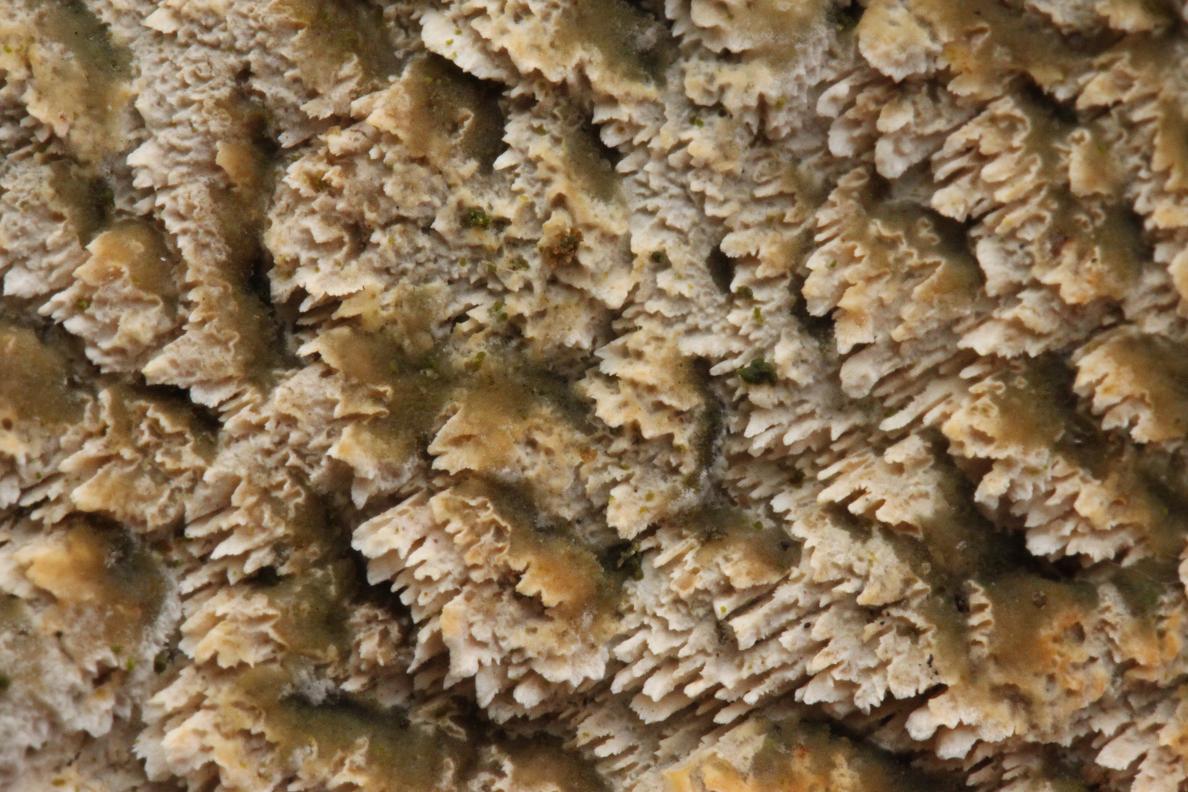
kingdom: Fungi
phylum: Basidiomycota
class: Agaricomycetes
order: Hymenochaetales
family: Schizoporaceae
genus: Schizopora
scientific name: Schizopora paradoxa
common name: hvid tandsvamp
